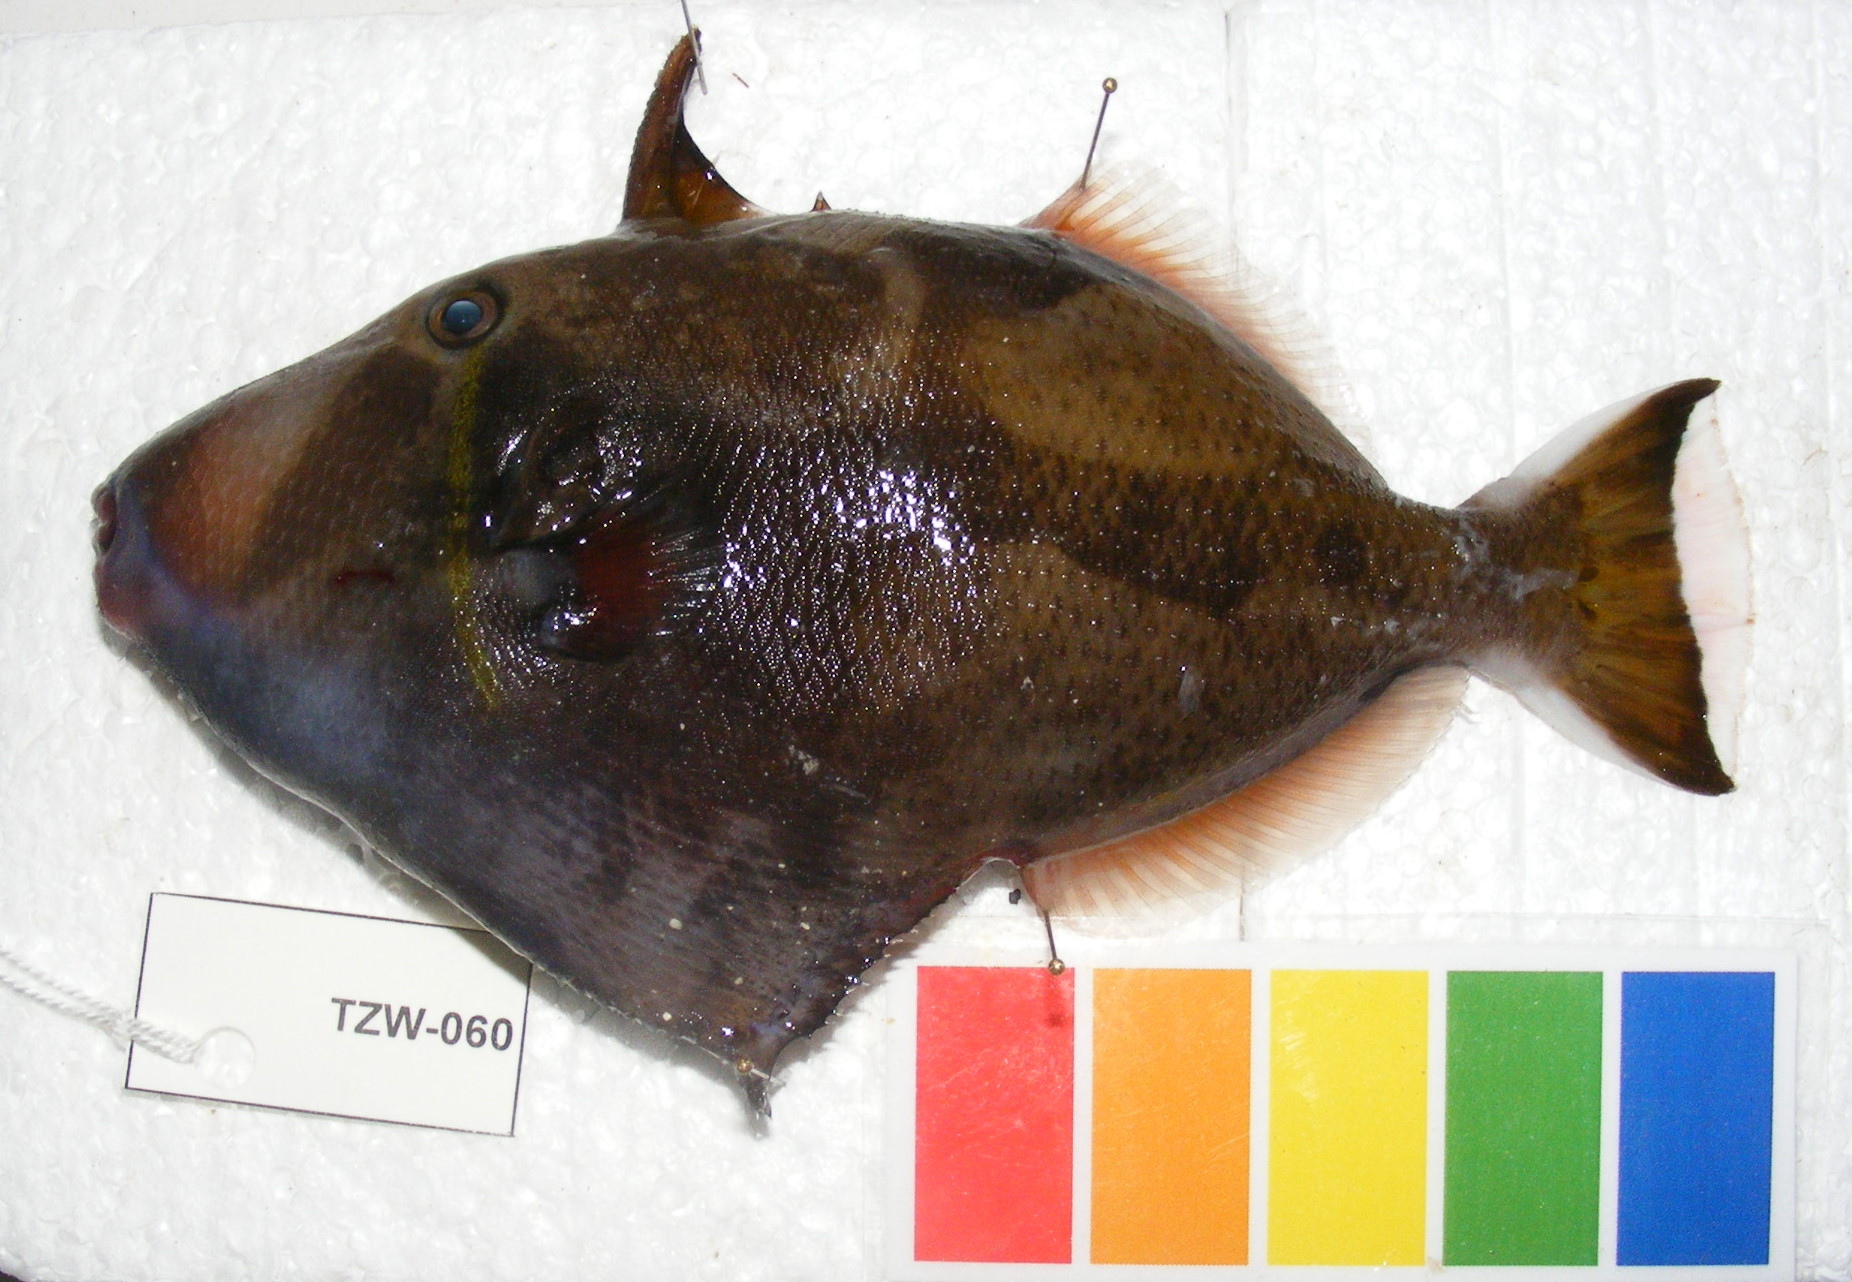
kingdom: Animalia
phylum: Chordata
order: Tetraodontiformes
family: Balistidae
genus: Sufflamen
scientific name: Sufflamen chrysopterum
